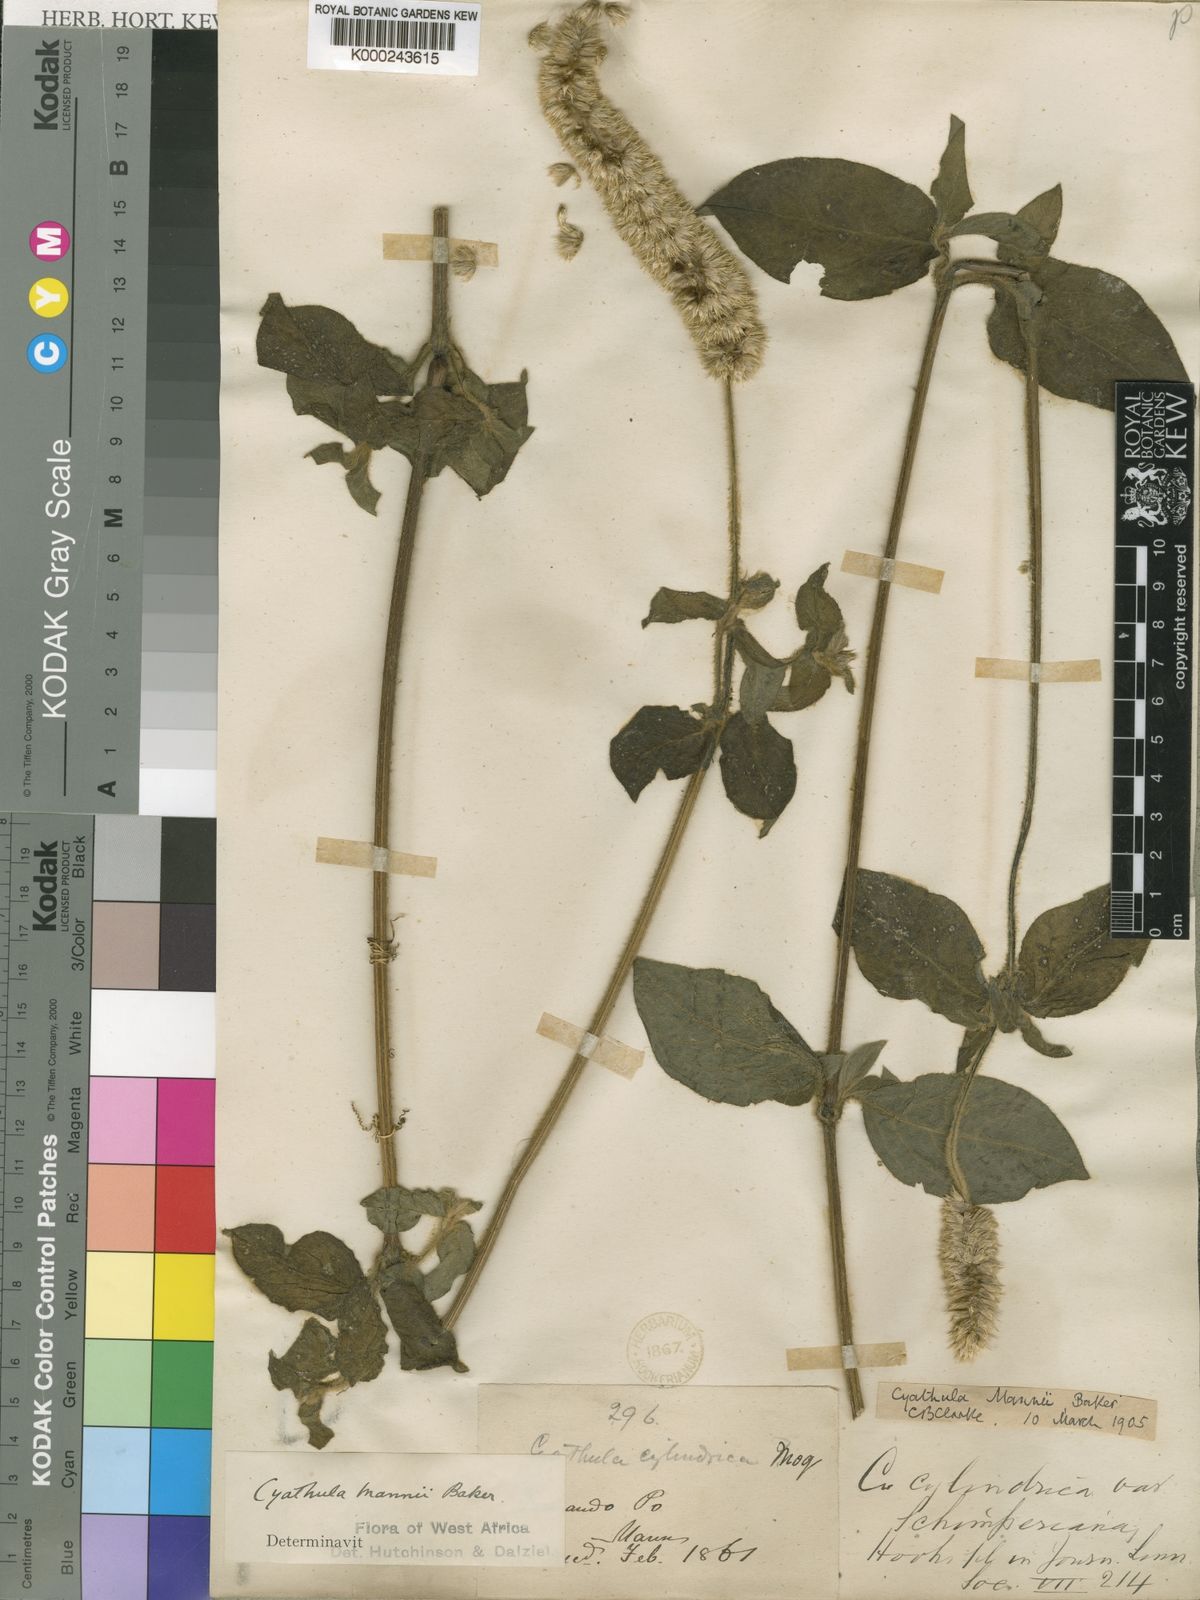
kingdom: Plantae
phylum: Tracheophyta
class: Magnoliopsida
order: Caryophyllales
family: Amaranthaceae
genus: Cyathula
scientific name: Cyathula cylindrica
